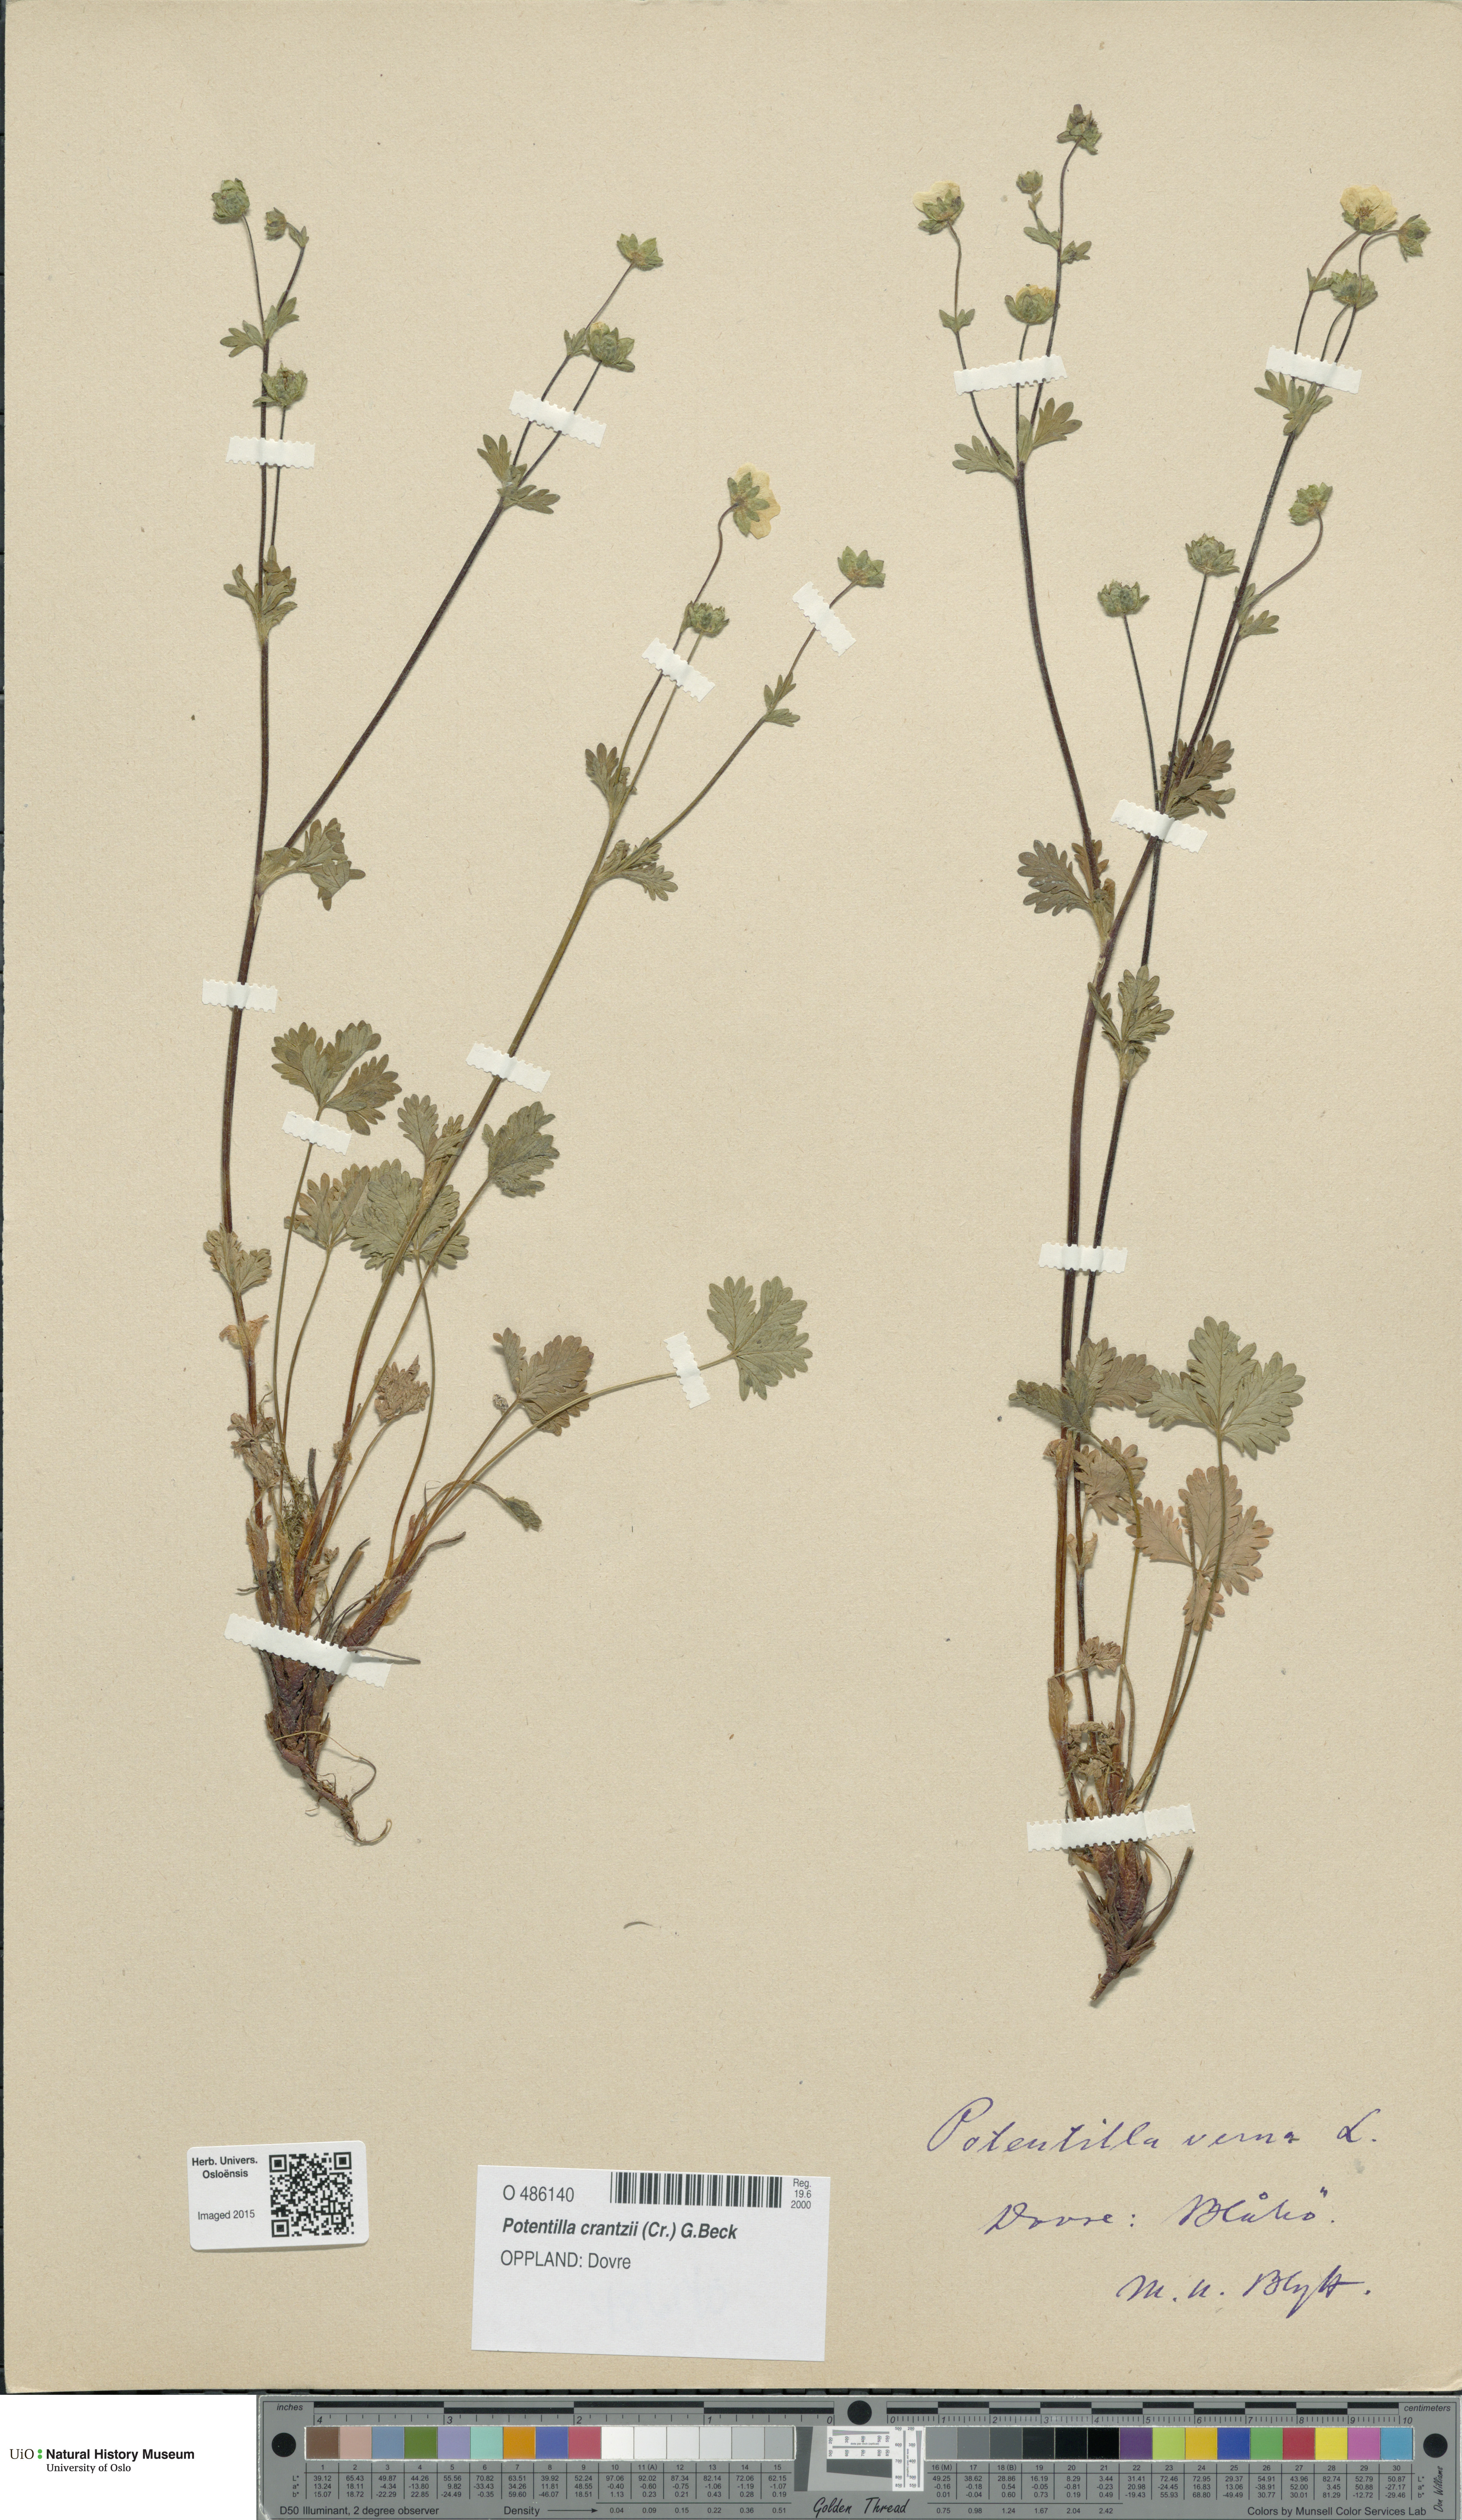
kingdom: Plantae
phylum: Tracheophyta
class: Magnoliopsida
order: Rosales
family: Rosaceae
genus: Potentilla
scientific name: Potentilla verna
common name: Spring cinquefoil
